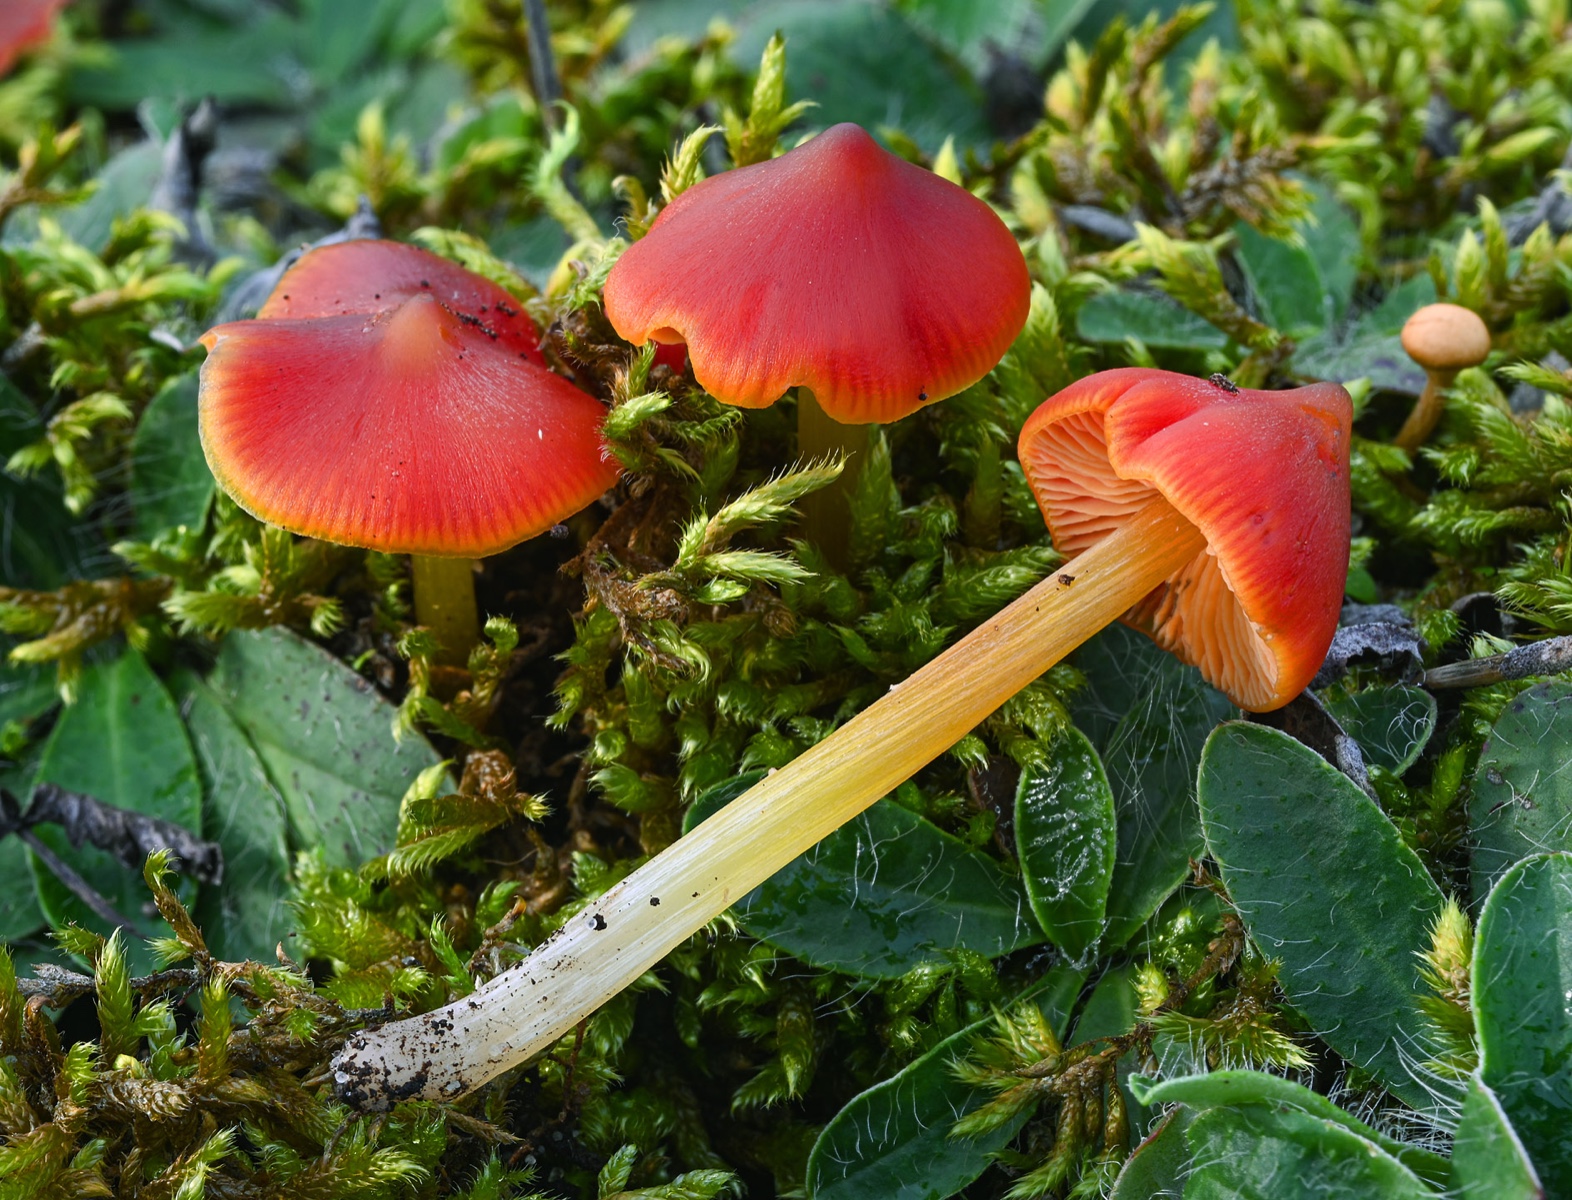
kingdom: Fungi
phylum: Basidiomycota
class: Agaricomycetes
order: Agaricales
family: Hygrophoraceae
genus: Hygrocybe
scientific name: Hygrocybe conica
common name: kegle-vokshat
